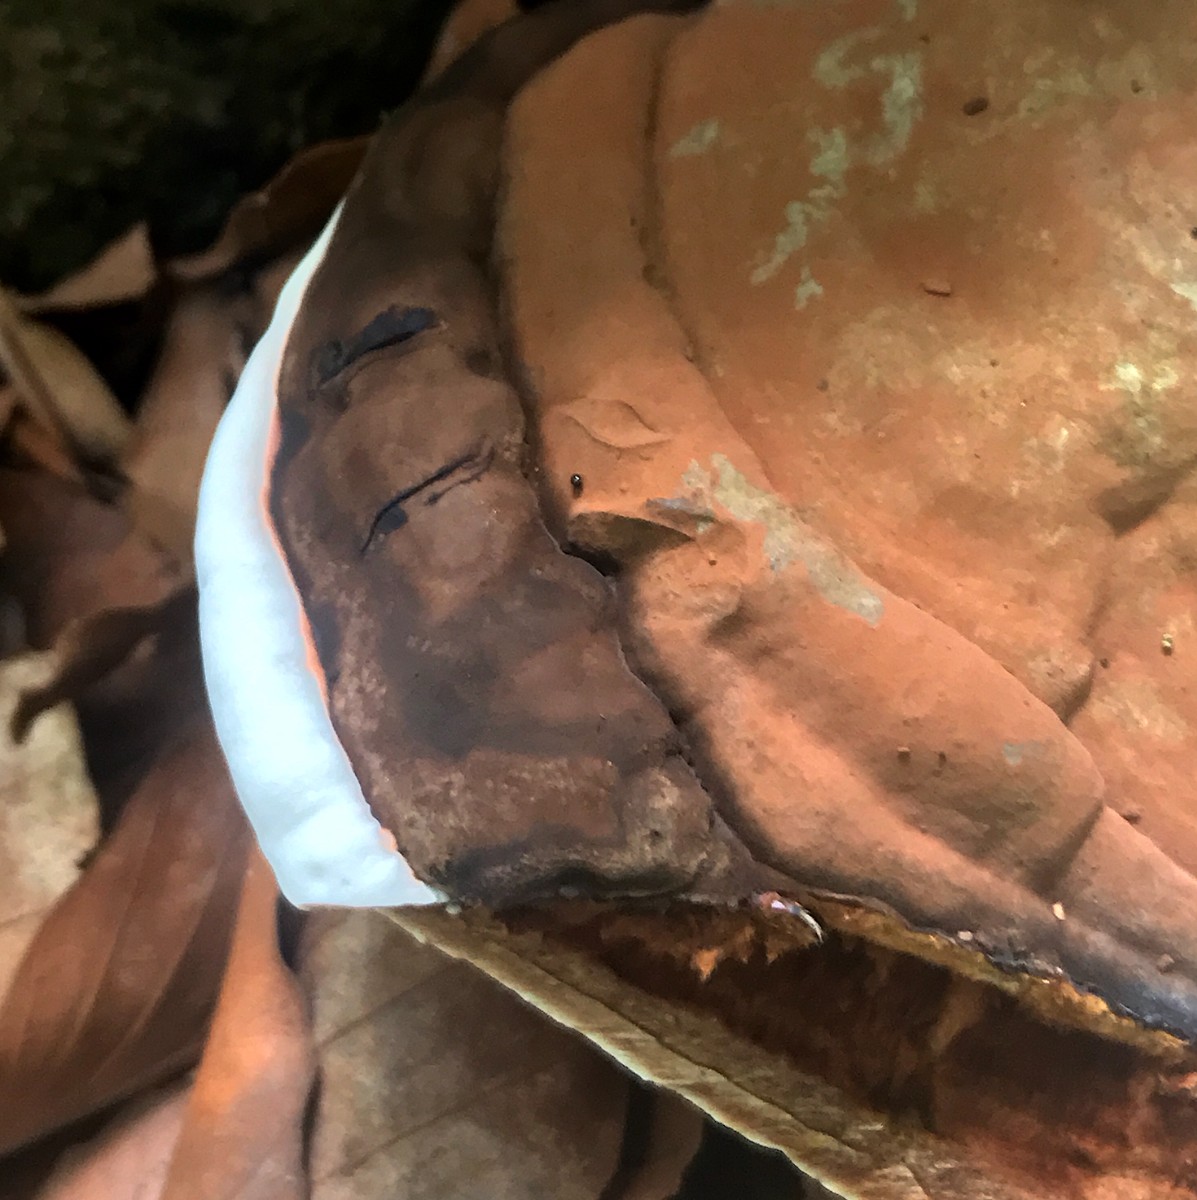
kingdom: Fungi
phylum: Basidiomycota
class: Agaricomycetes
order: Polyporales
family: Polyporaceae
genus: Ganoderma
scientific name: Ganoderma applanatum
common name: flad lakporesvamp
